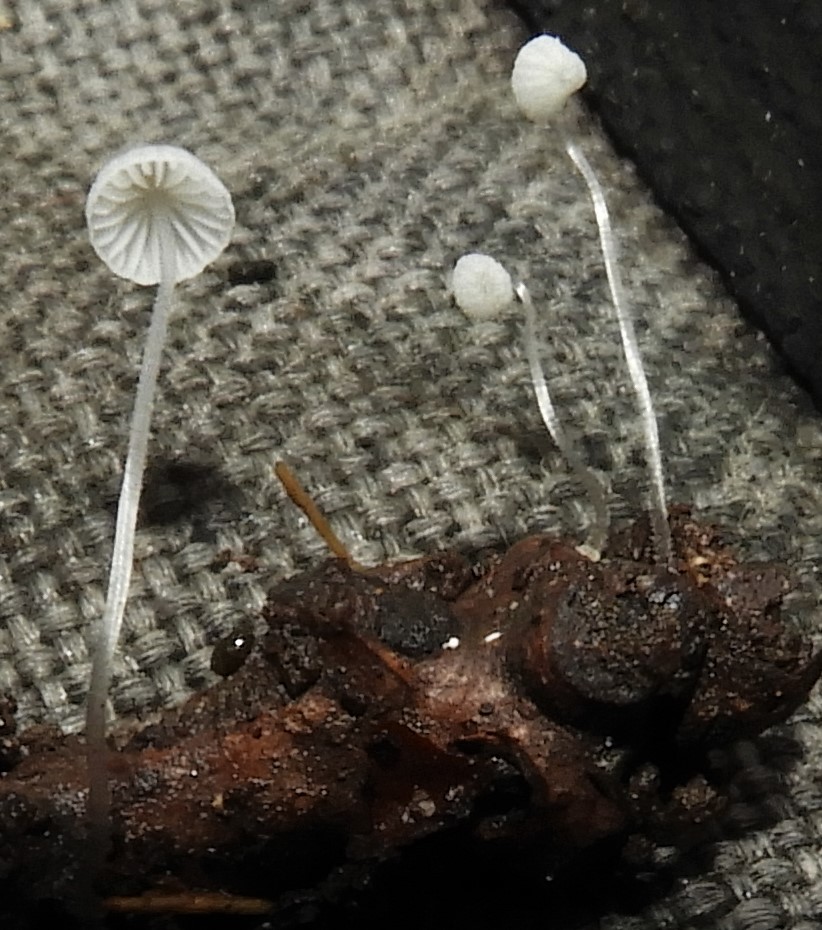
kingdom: Fungi
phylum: Basidiomycota
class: Agaricomycetes
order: Agaricales
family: Mycenaceae
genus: Mycena
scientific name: Mycena tenerrima
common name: pudret huesvamp
